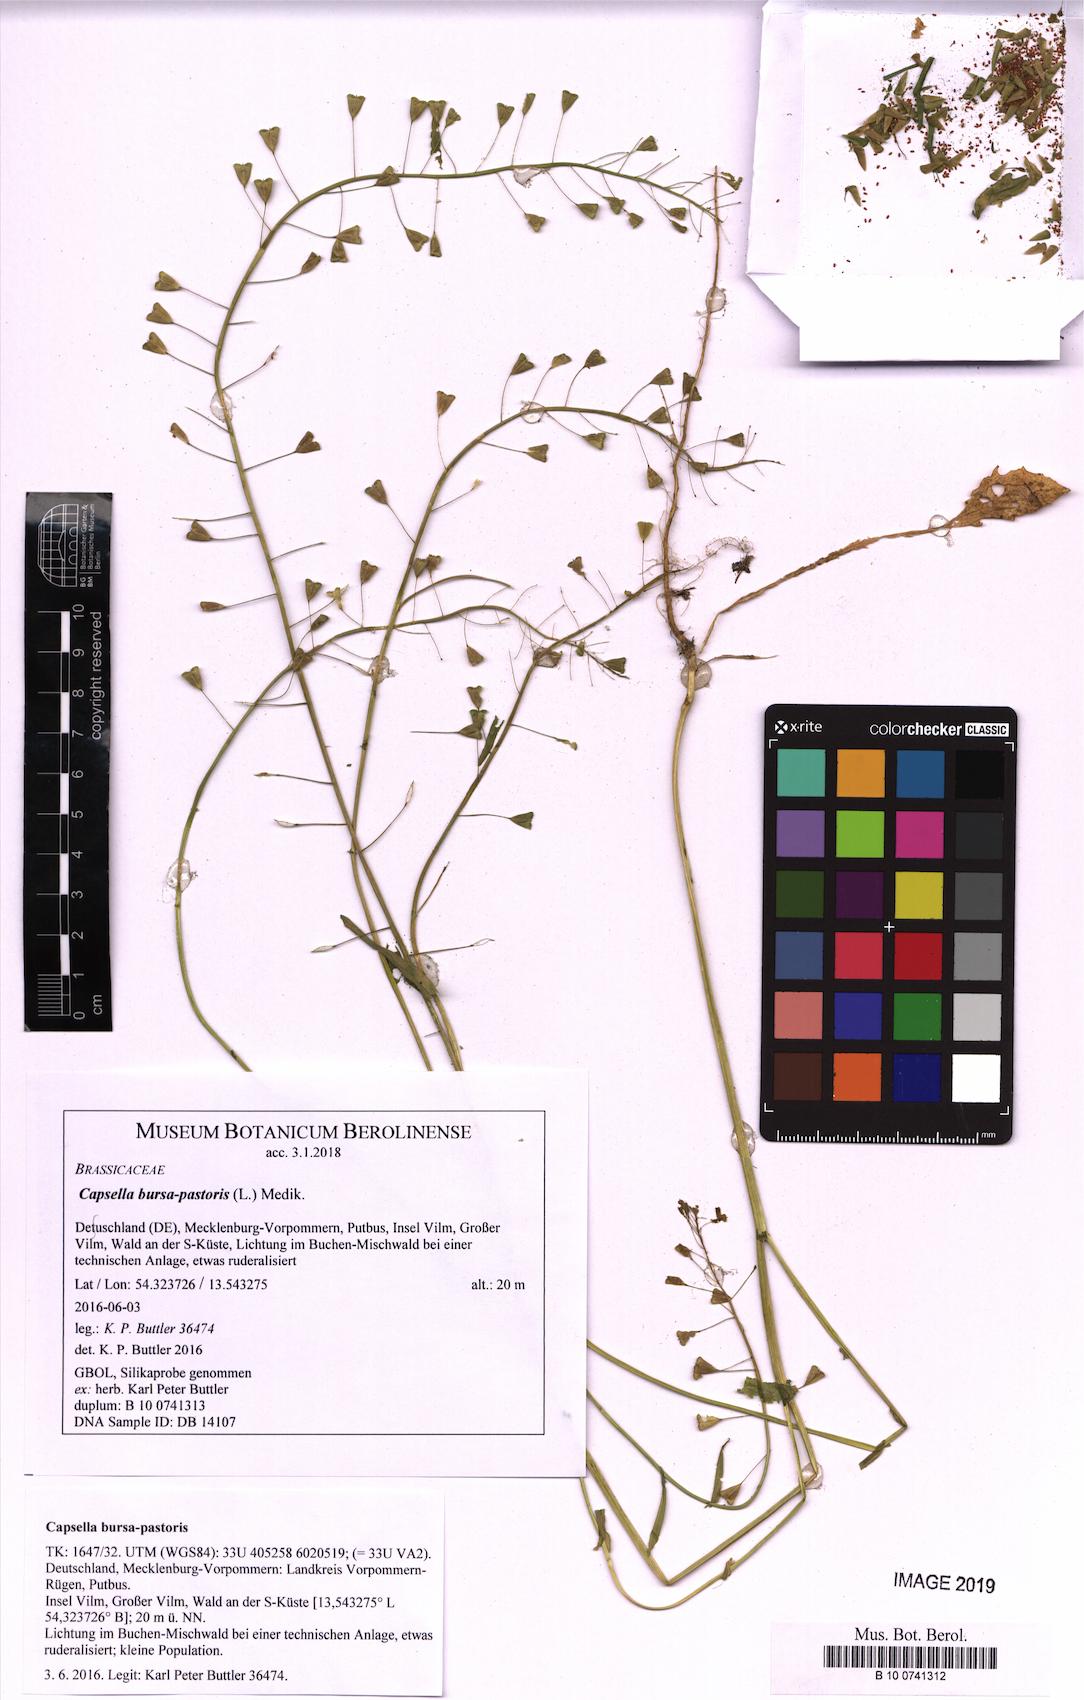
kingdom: Plantae
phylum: Tracheophyta
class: Magnoliopsida
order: Brassicales
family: Brassicaceae
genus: Capsella
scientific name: Capsella bursa-pastoris
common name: Shepherd's purse
